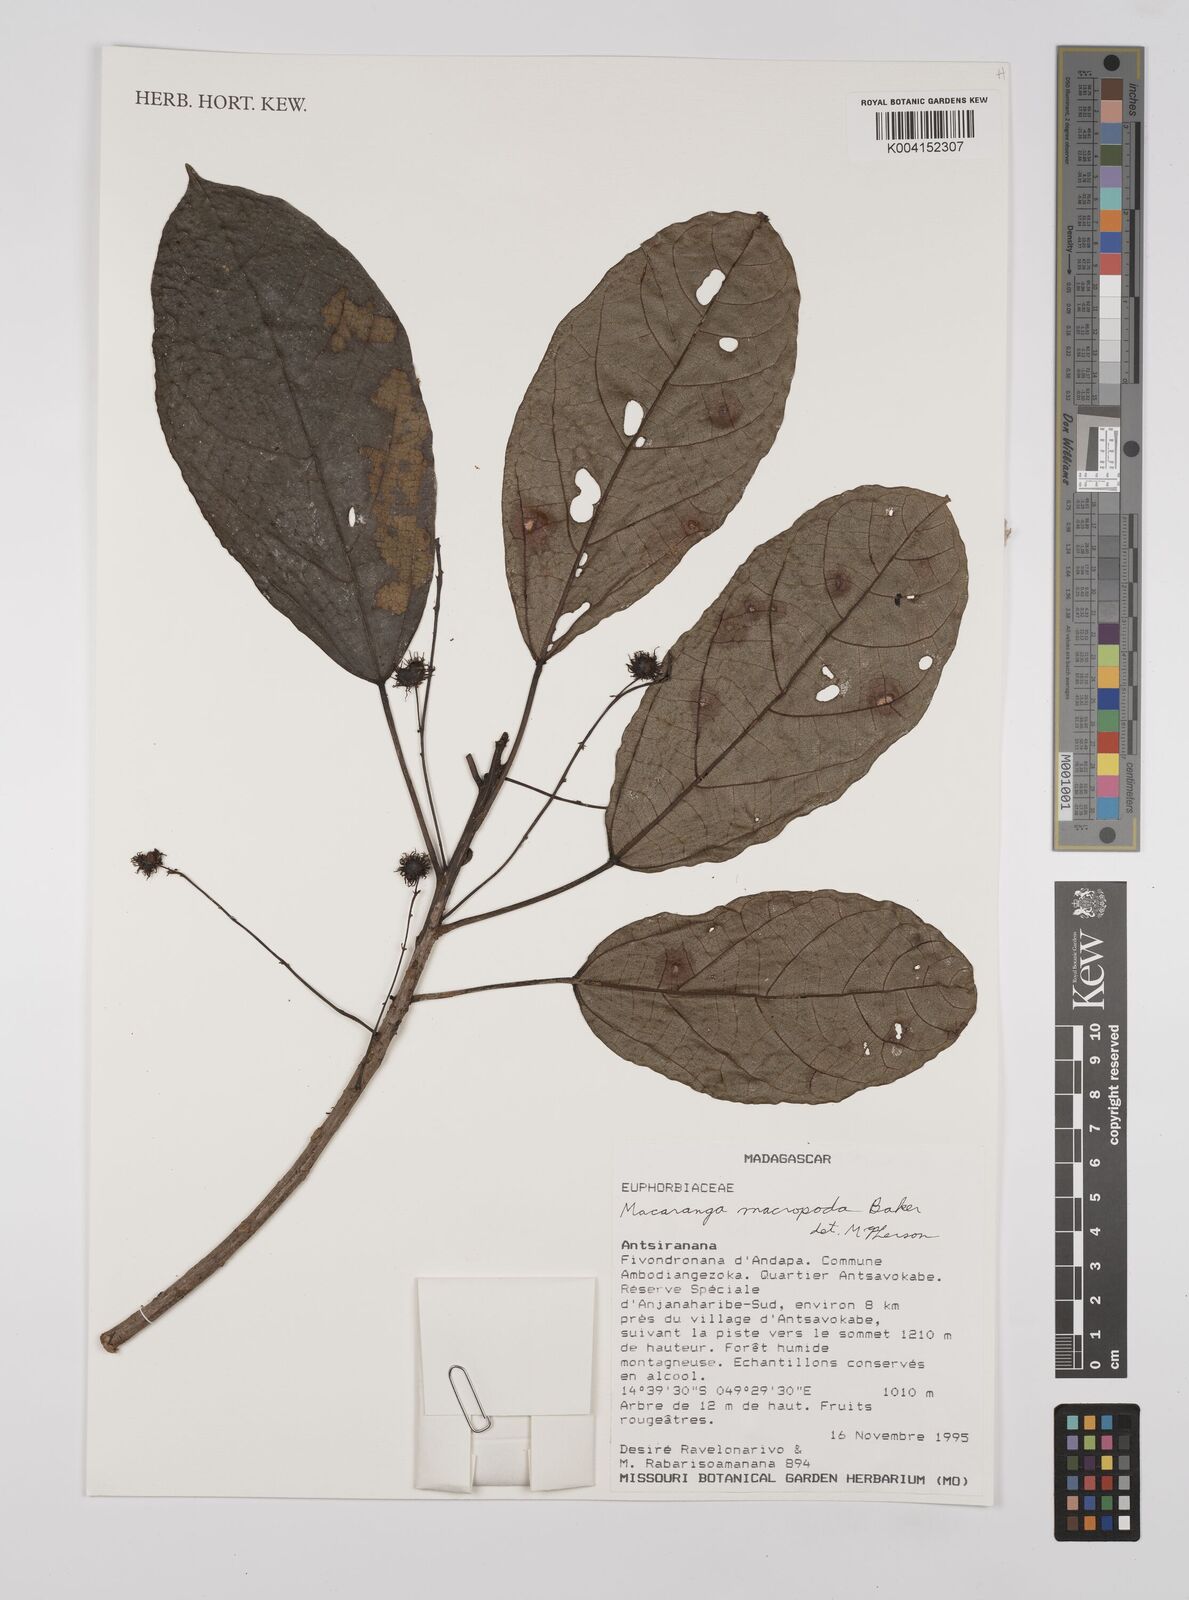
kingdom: Plantae
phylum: Tracheophyta
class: Magnoliopsida
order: Malpighiales
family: Euphorbiaceae
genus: Macaranga
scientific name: Macaranga macropoda
